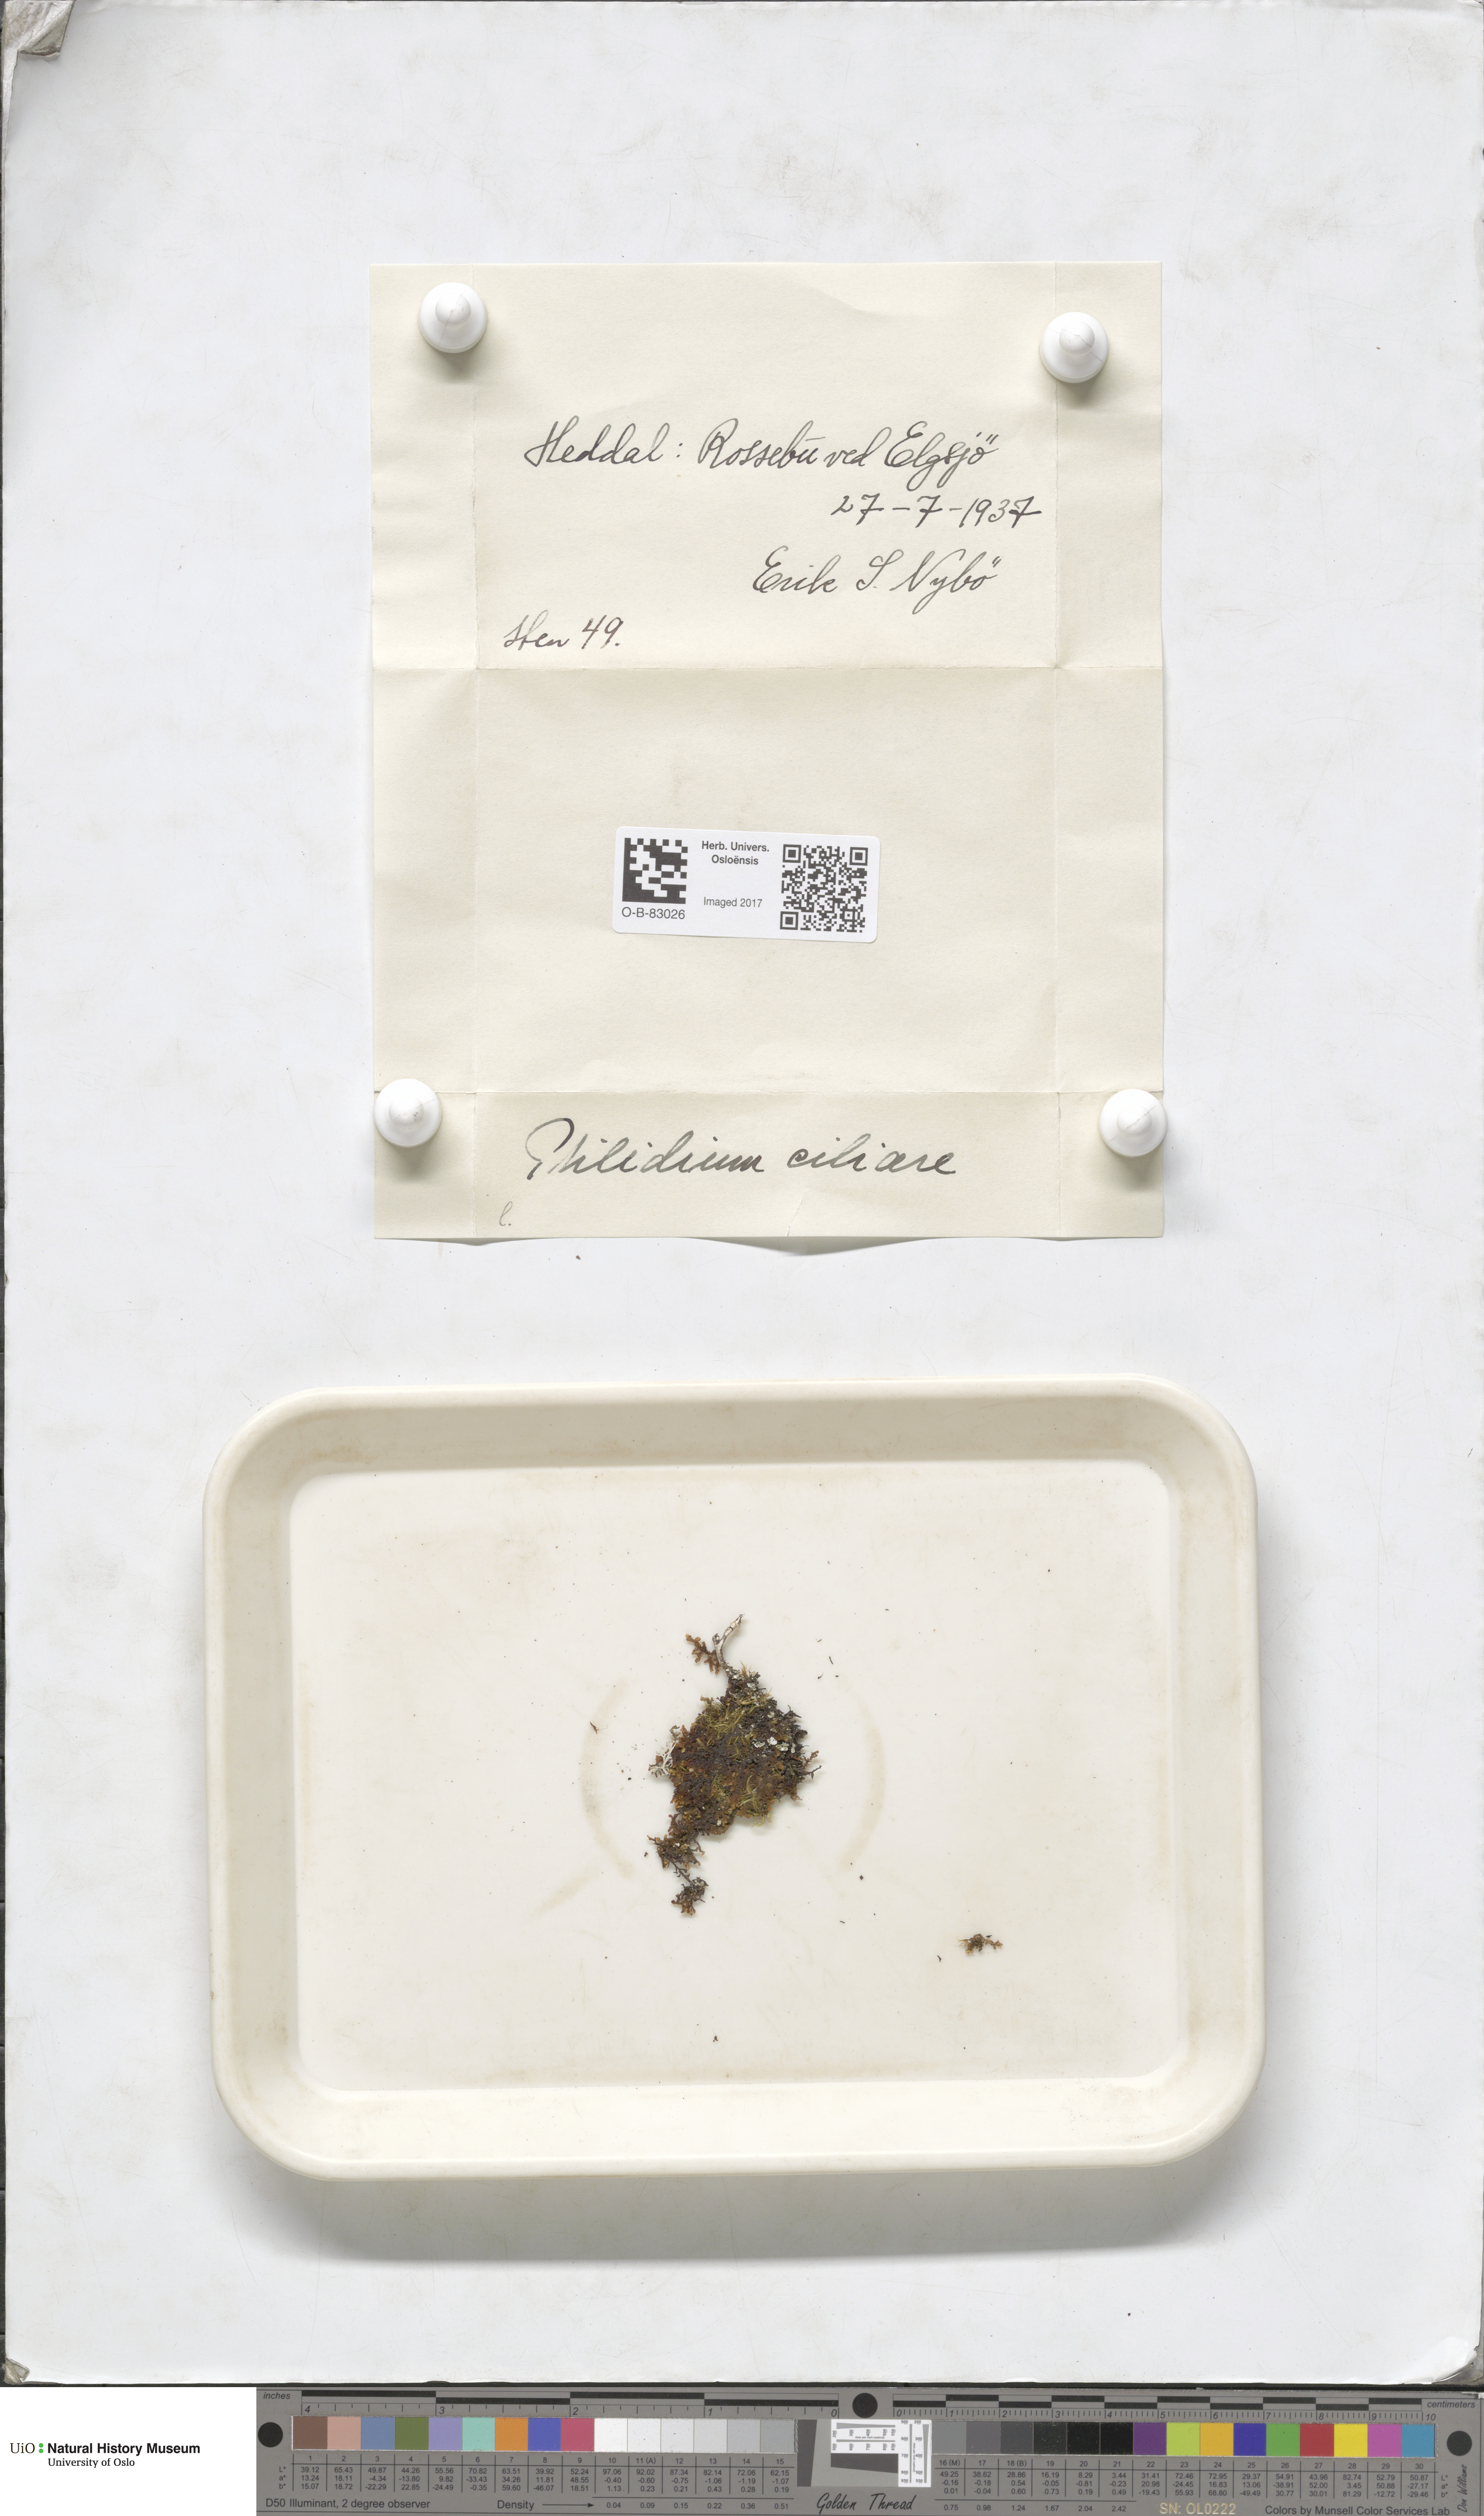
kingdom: Plantae
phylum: Marchantiophyta
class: Jungermanniopsida
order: Ptilidiales
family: Ptilidiaceae
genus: Ptilidium
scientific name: Ptilidium ciliare
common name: Ciliate fringewort
